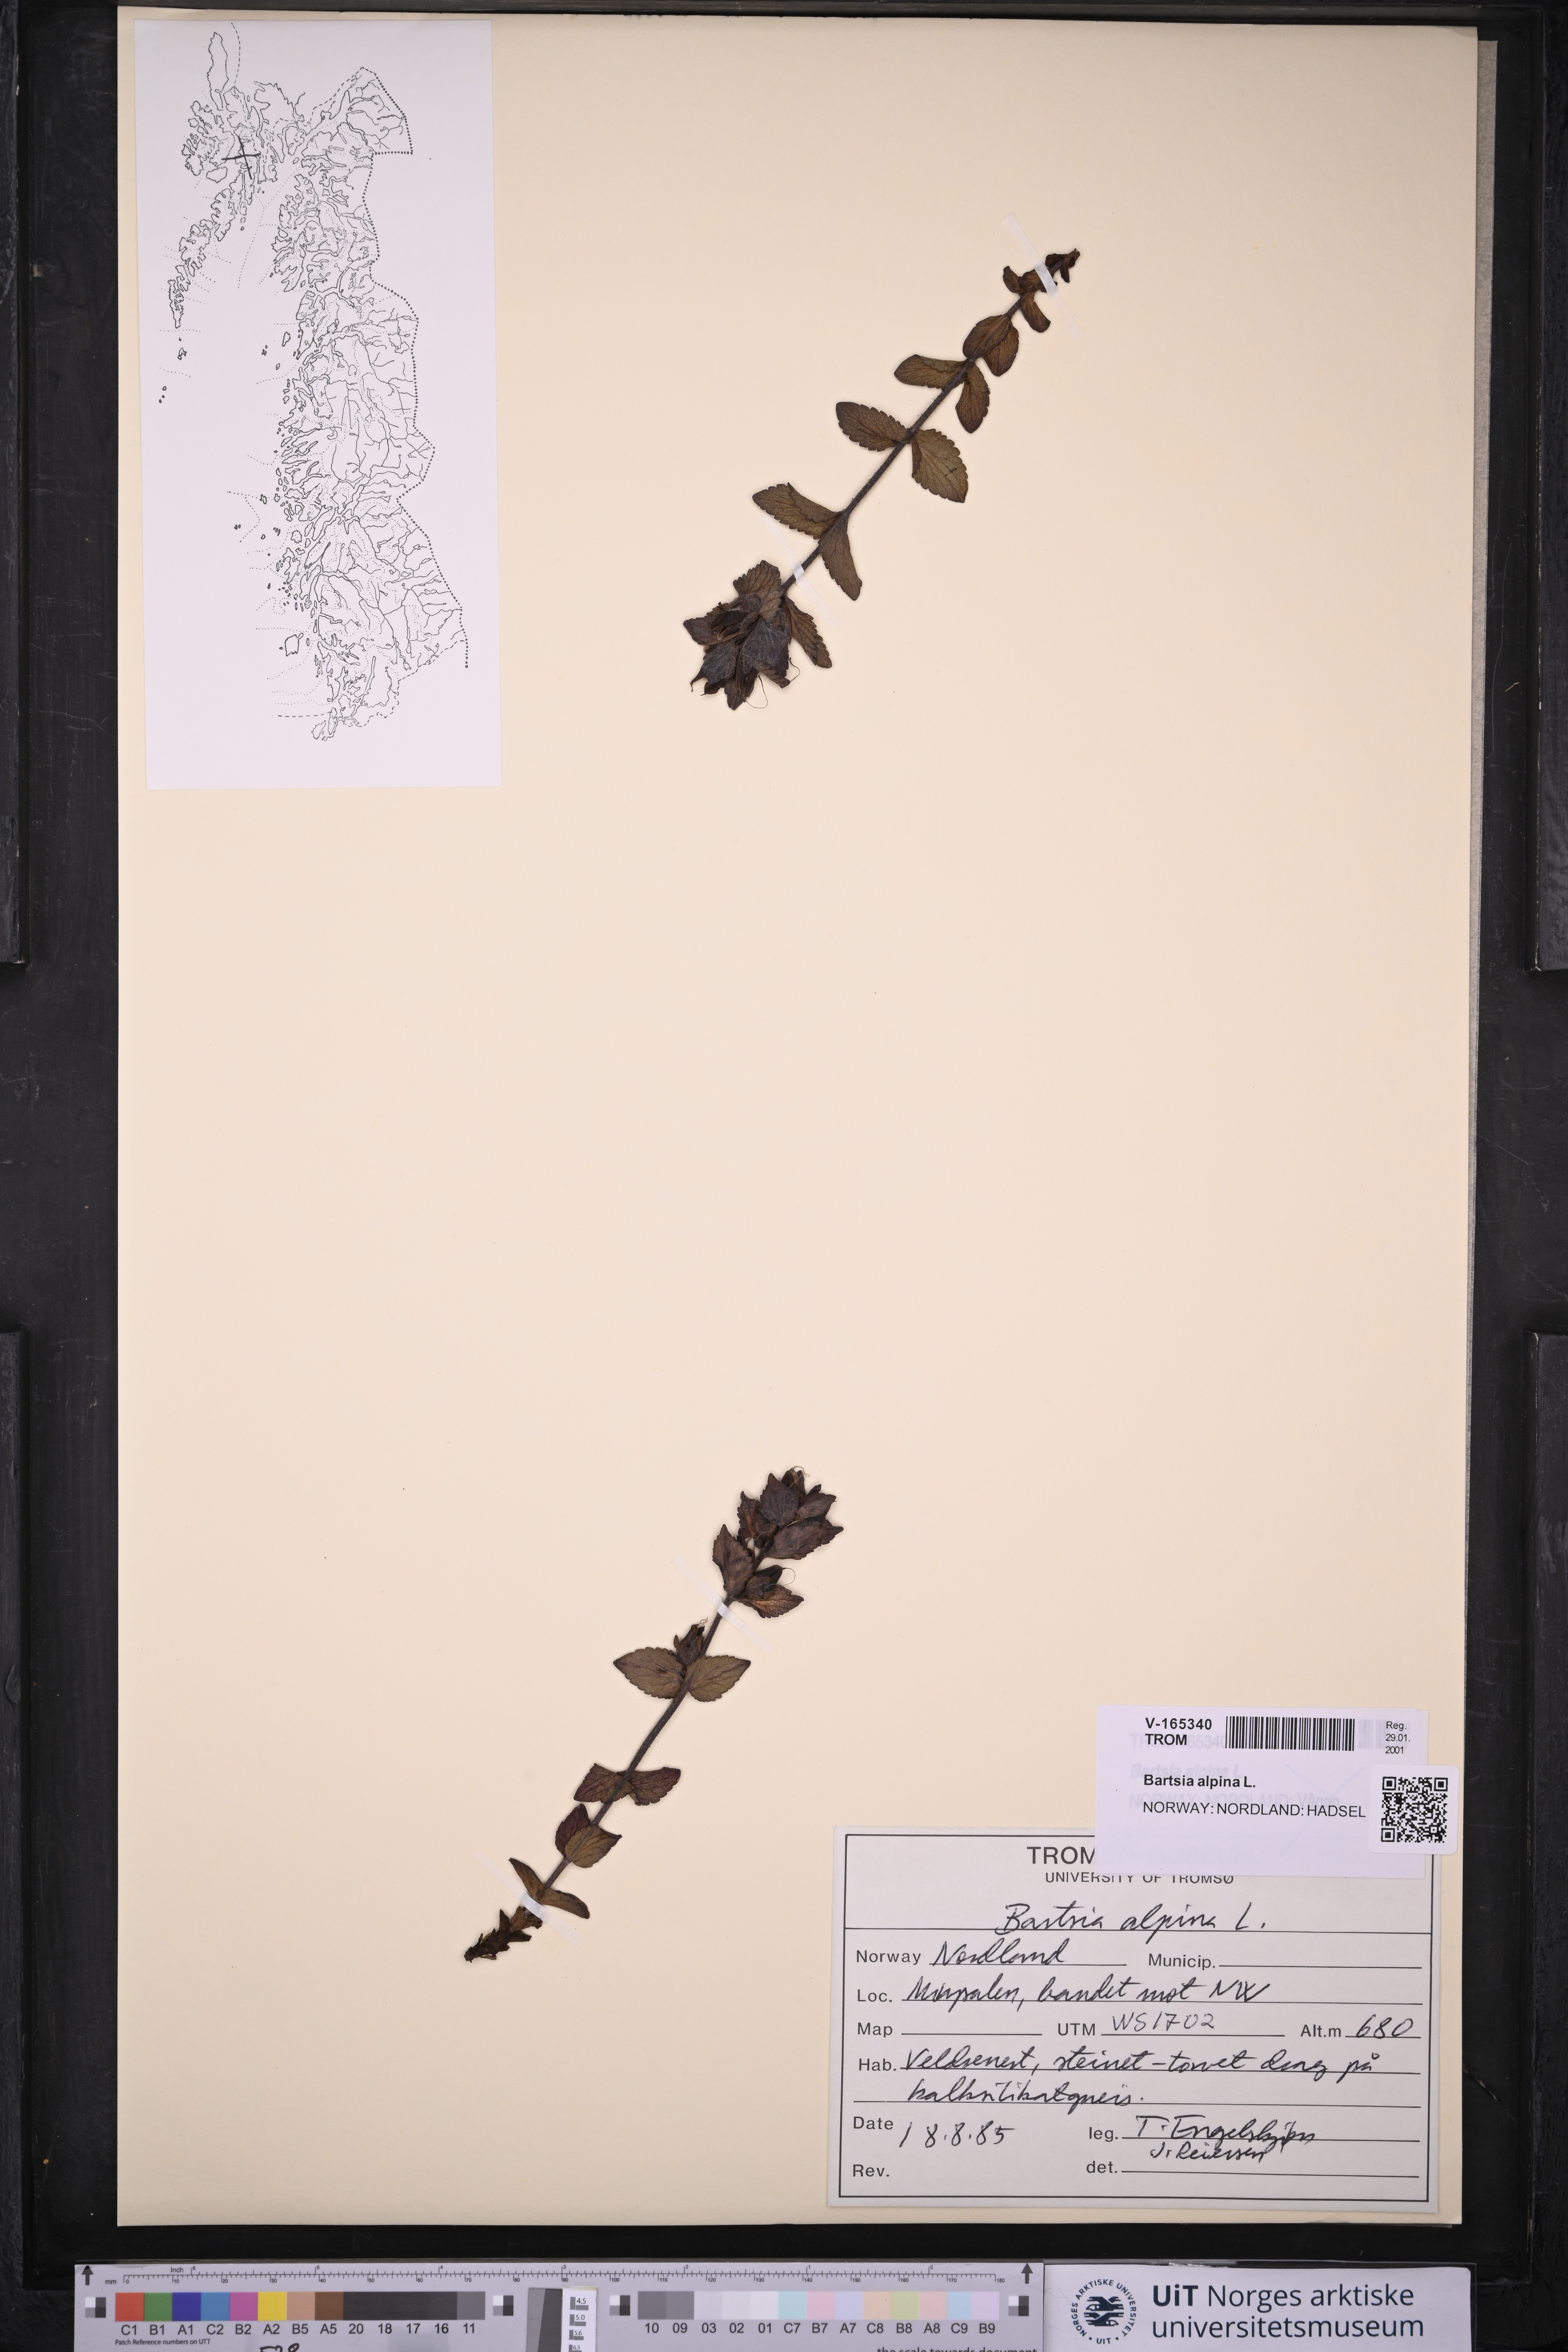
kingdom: Plantae
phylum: Tracheophyta
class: Magnoliopsida
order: Lamiales
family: Orobanchaceae
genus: Bartsia
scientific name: Bartsia alpina
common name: Alpine bartsia
